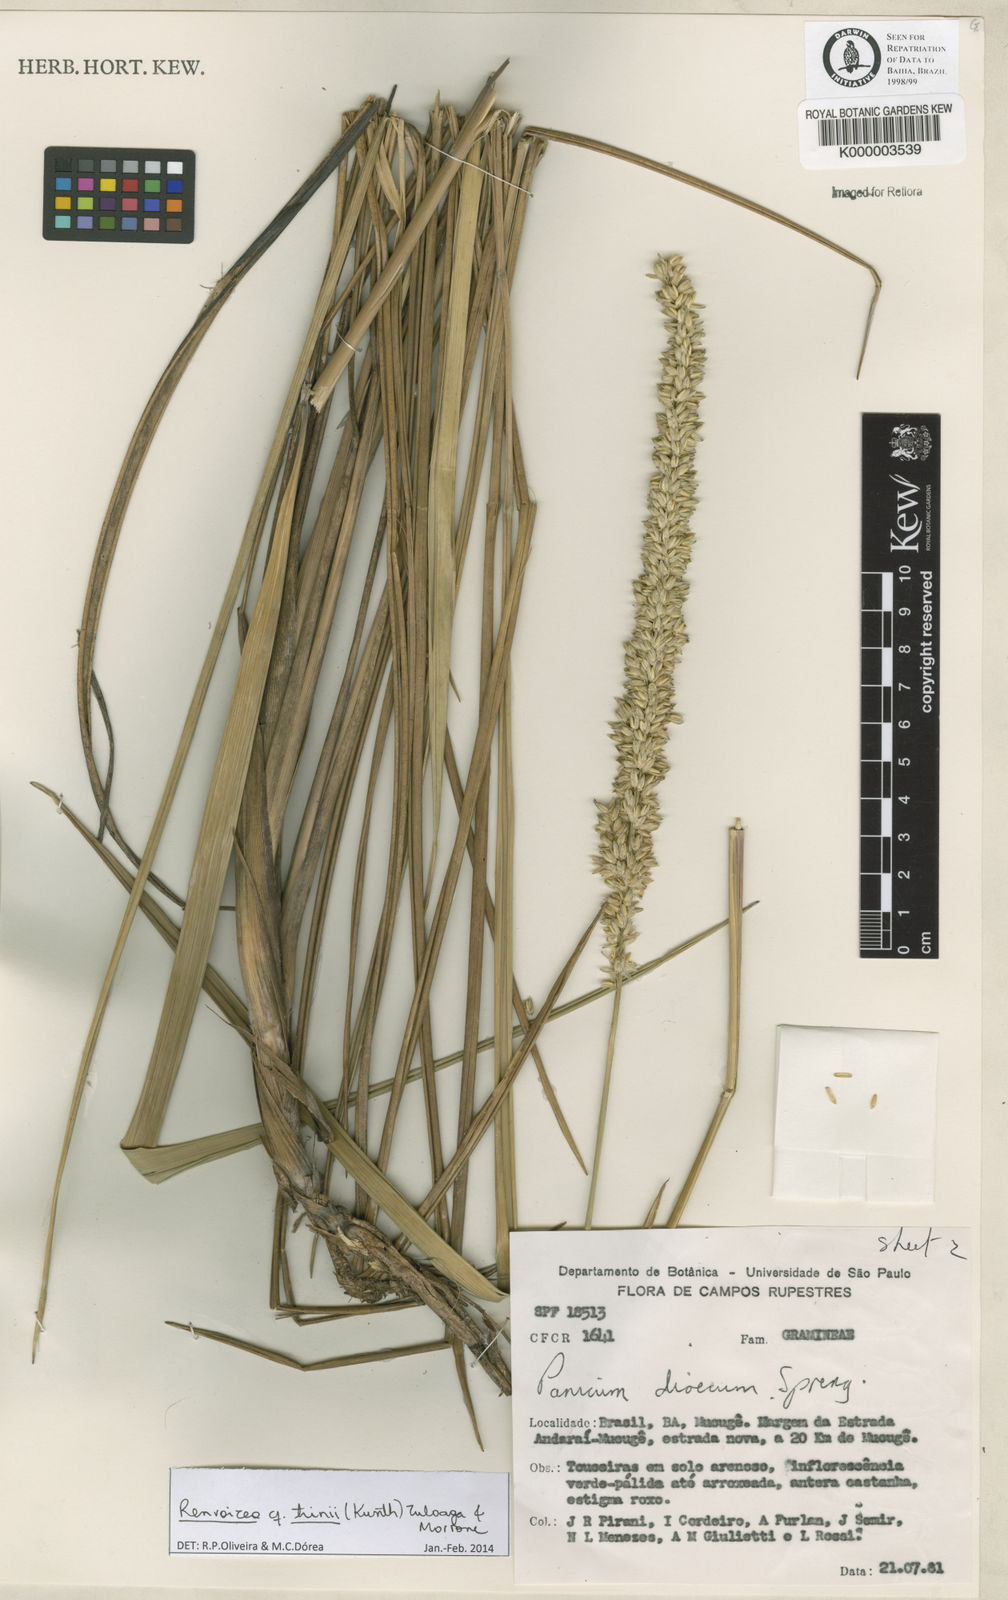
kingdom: Plantae
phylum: Tracheophyta
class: Liliopsida
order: Poales
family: Poaceae
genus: Renvoizea
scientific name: Renvoizea trinii
